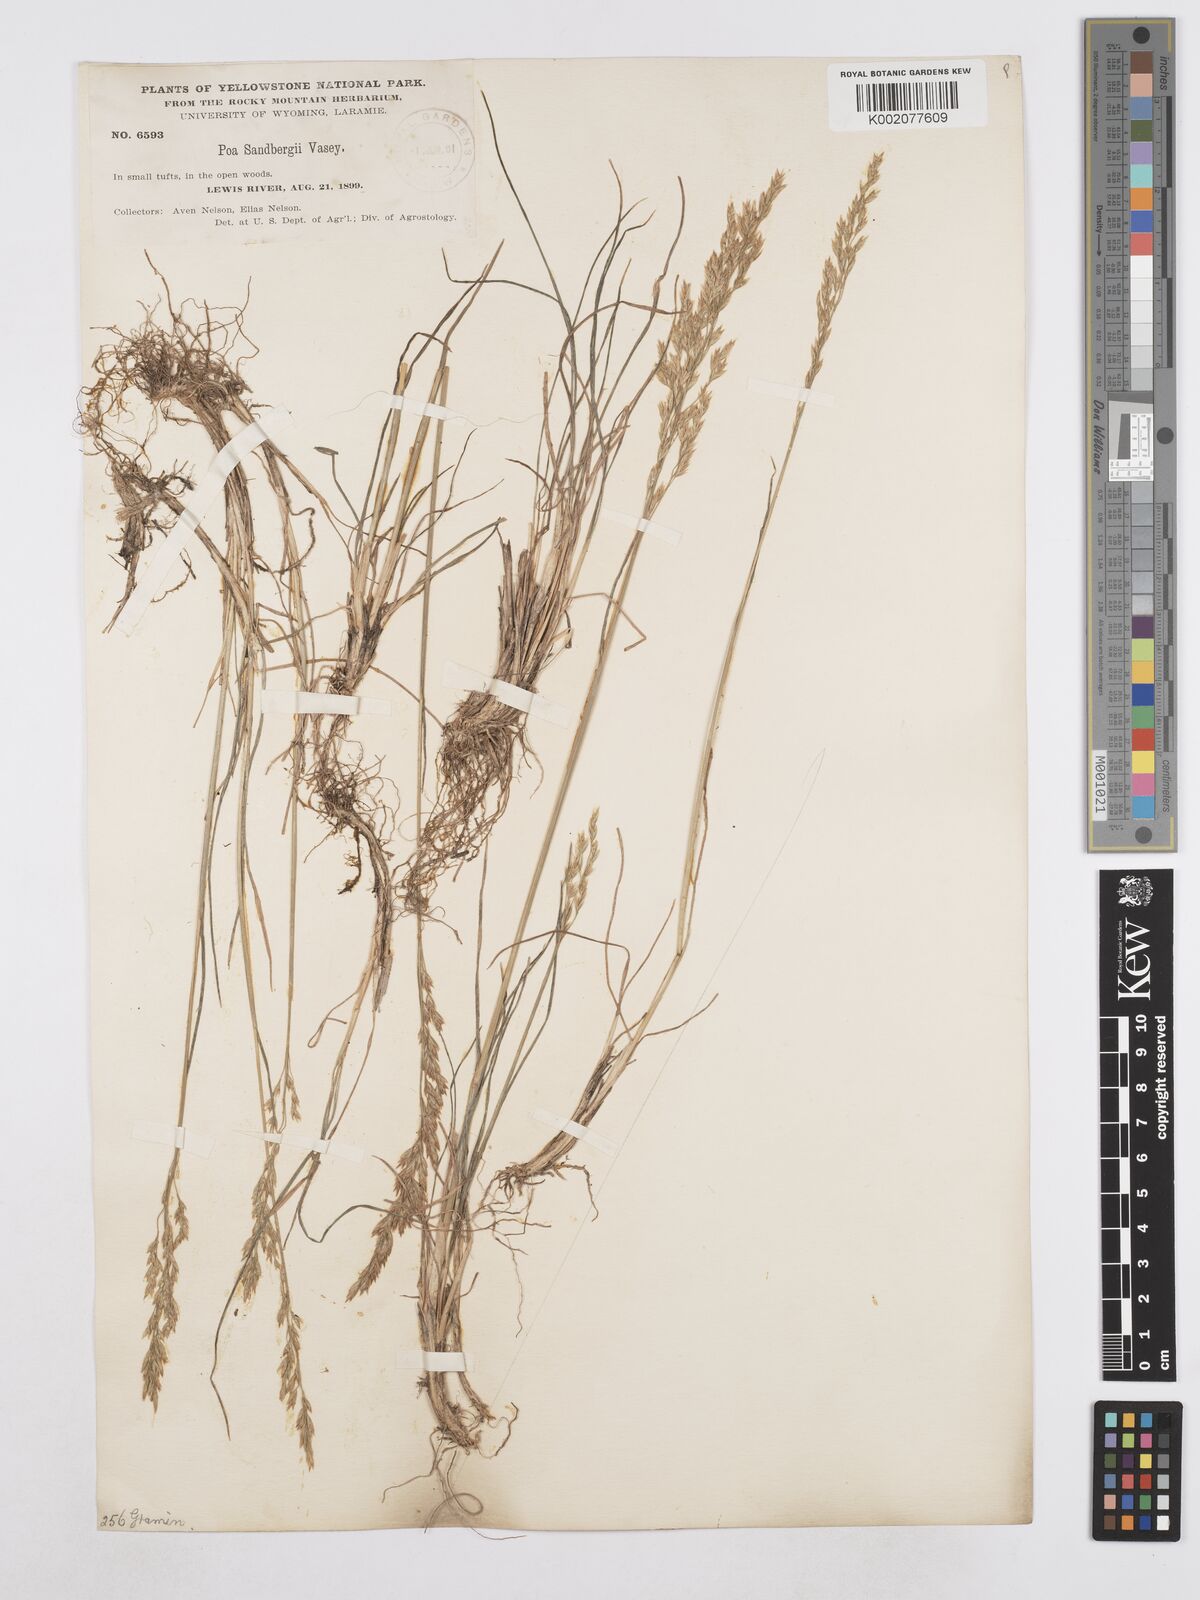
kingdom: Plantae
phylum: Tracheophyta
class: Liliopsida
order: Poales
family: Poaceae
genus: Poa
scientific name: Poa secunda
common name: Sandberg bluegrass
